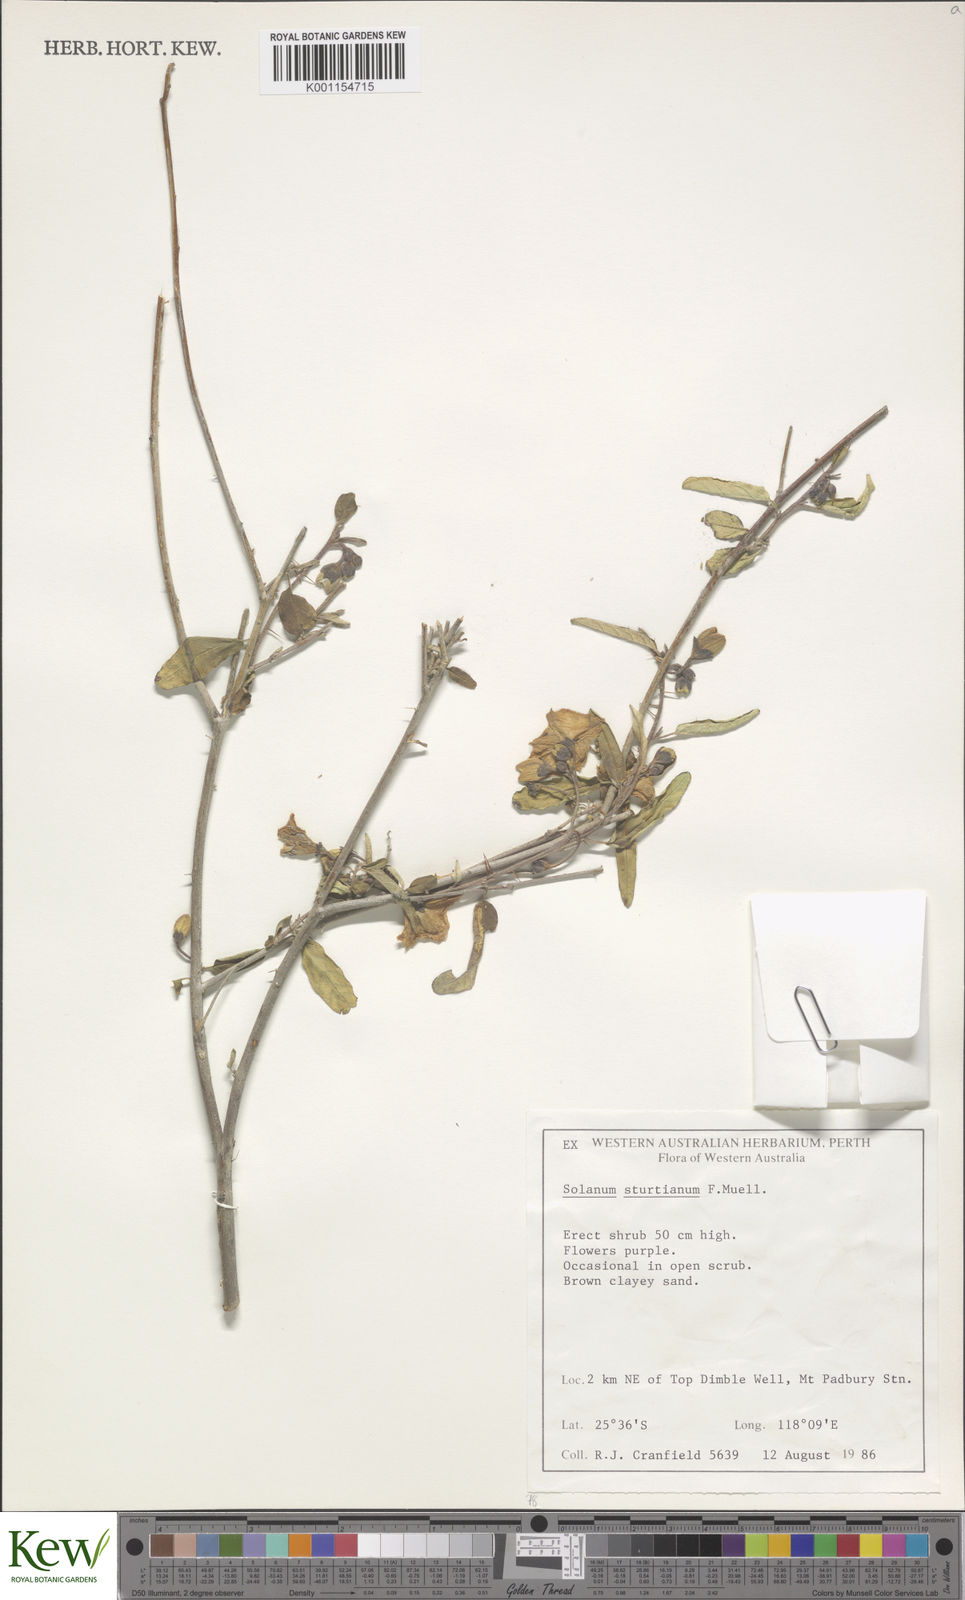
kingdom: Plantae
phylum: Tracheophyta
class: Magnoliopsida
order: Solanales
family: Solanaceae
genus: Solanum
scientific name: Solanum sturtianum
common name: Thargomindah nightshade
